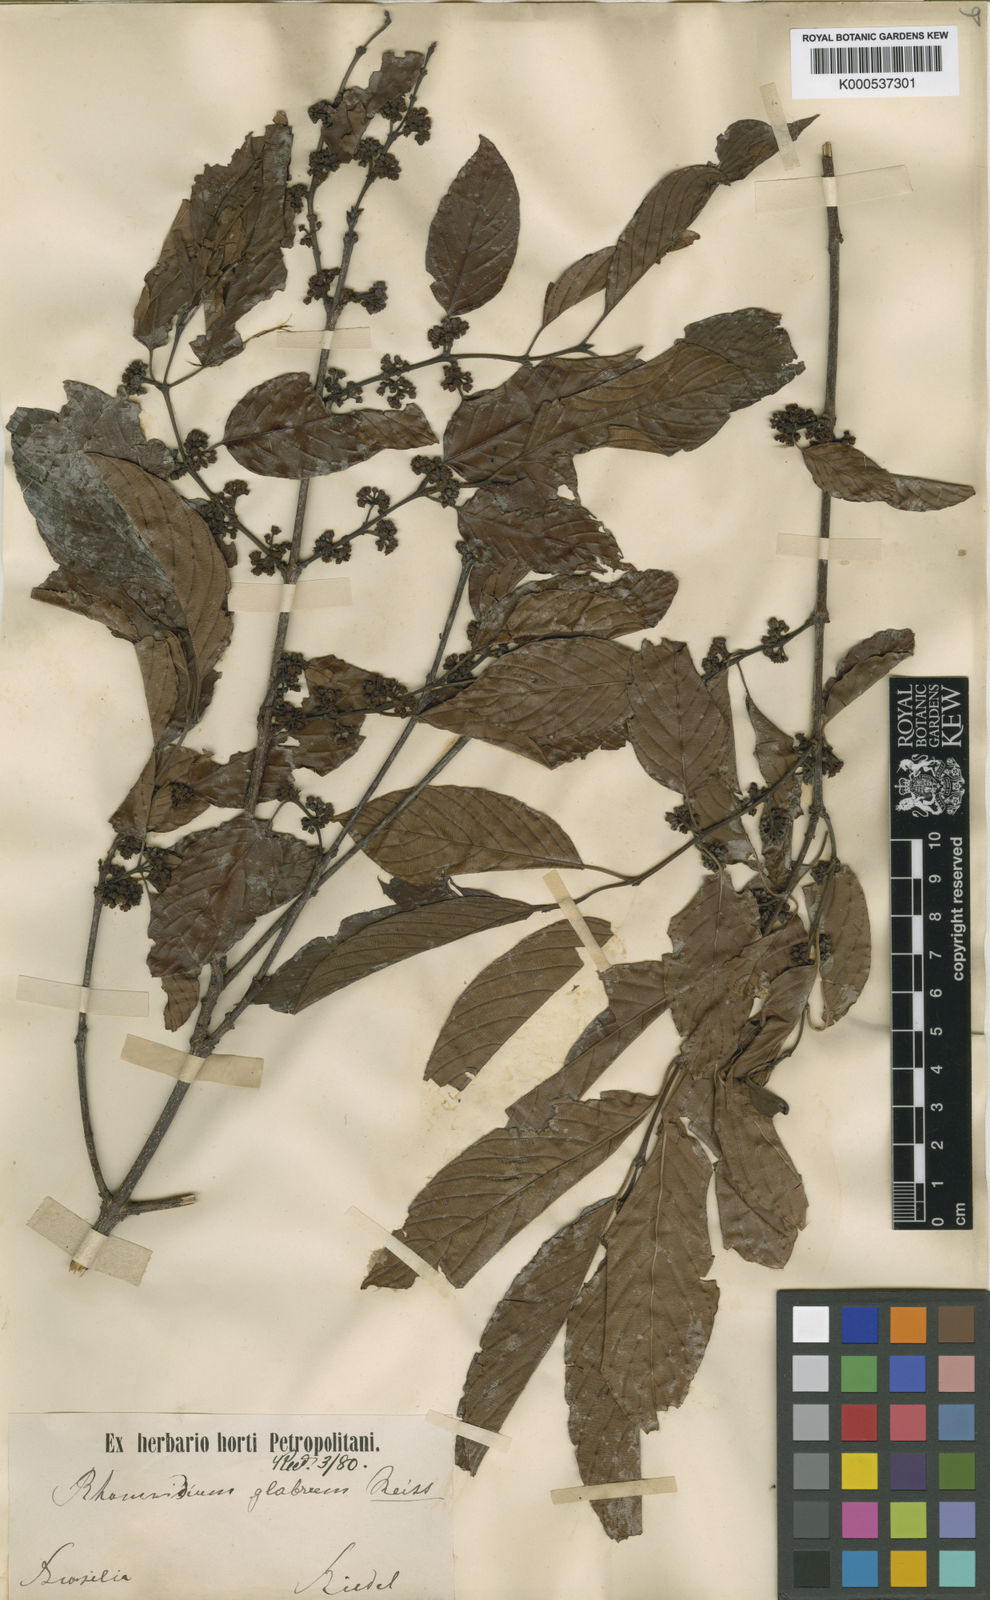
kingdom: Plantae
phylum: Tracheophyta
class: Magnoliopsida
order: Rosales
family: Rhamnaceae
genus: Rhamnidium
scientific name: Rhamnidium glabrum
